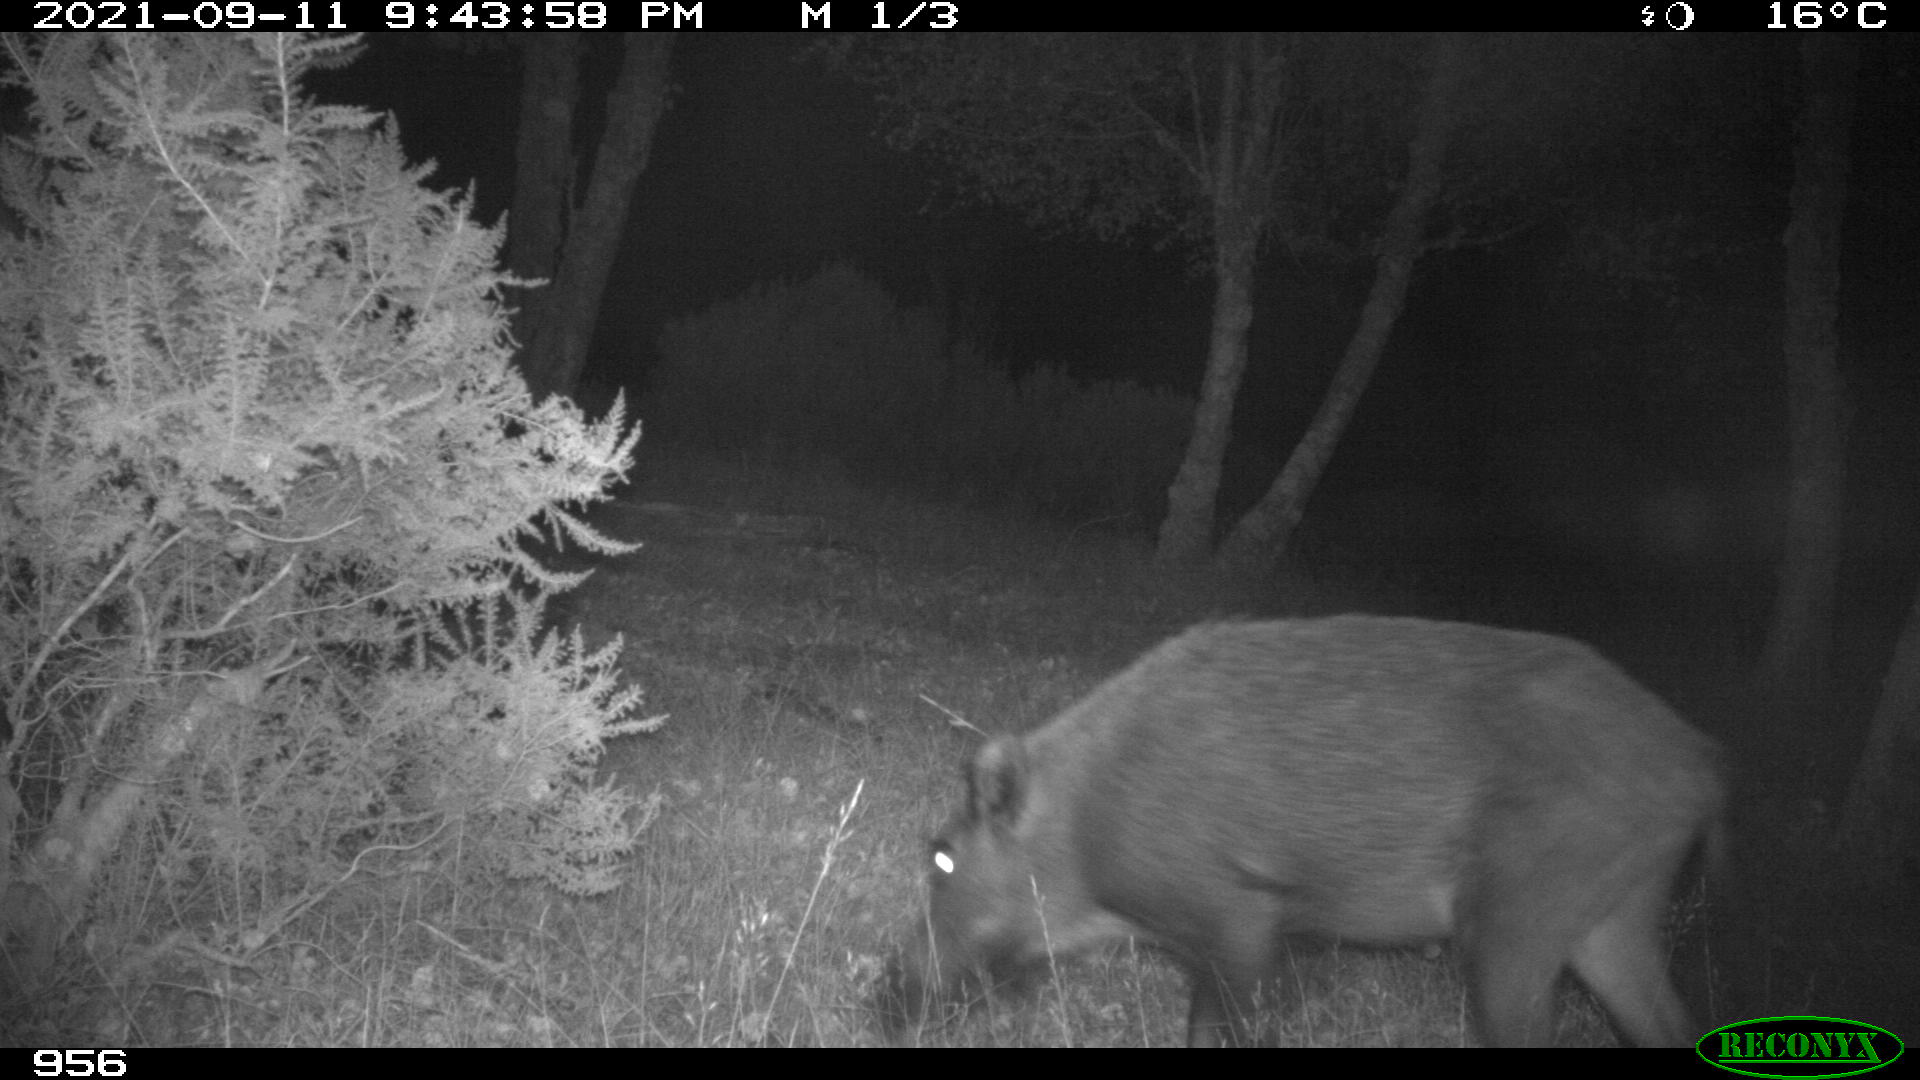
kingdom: Animalia
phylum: Chordata
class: Mammalia
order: Artiodactyla
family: Suidae
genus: Sus
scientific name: Sus scrofa
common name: Wild boar
